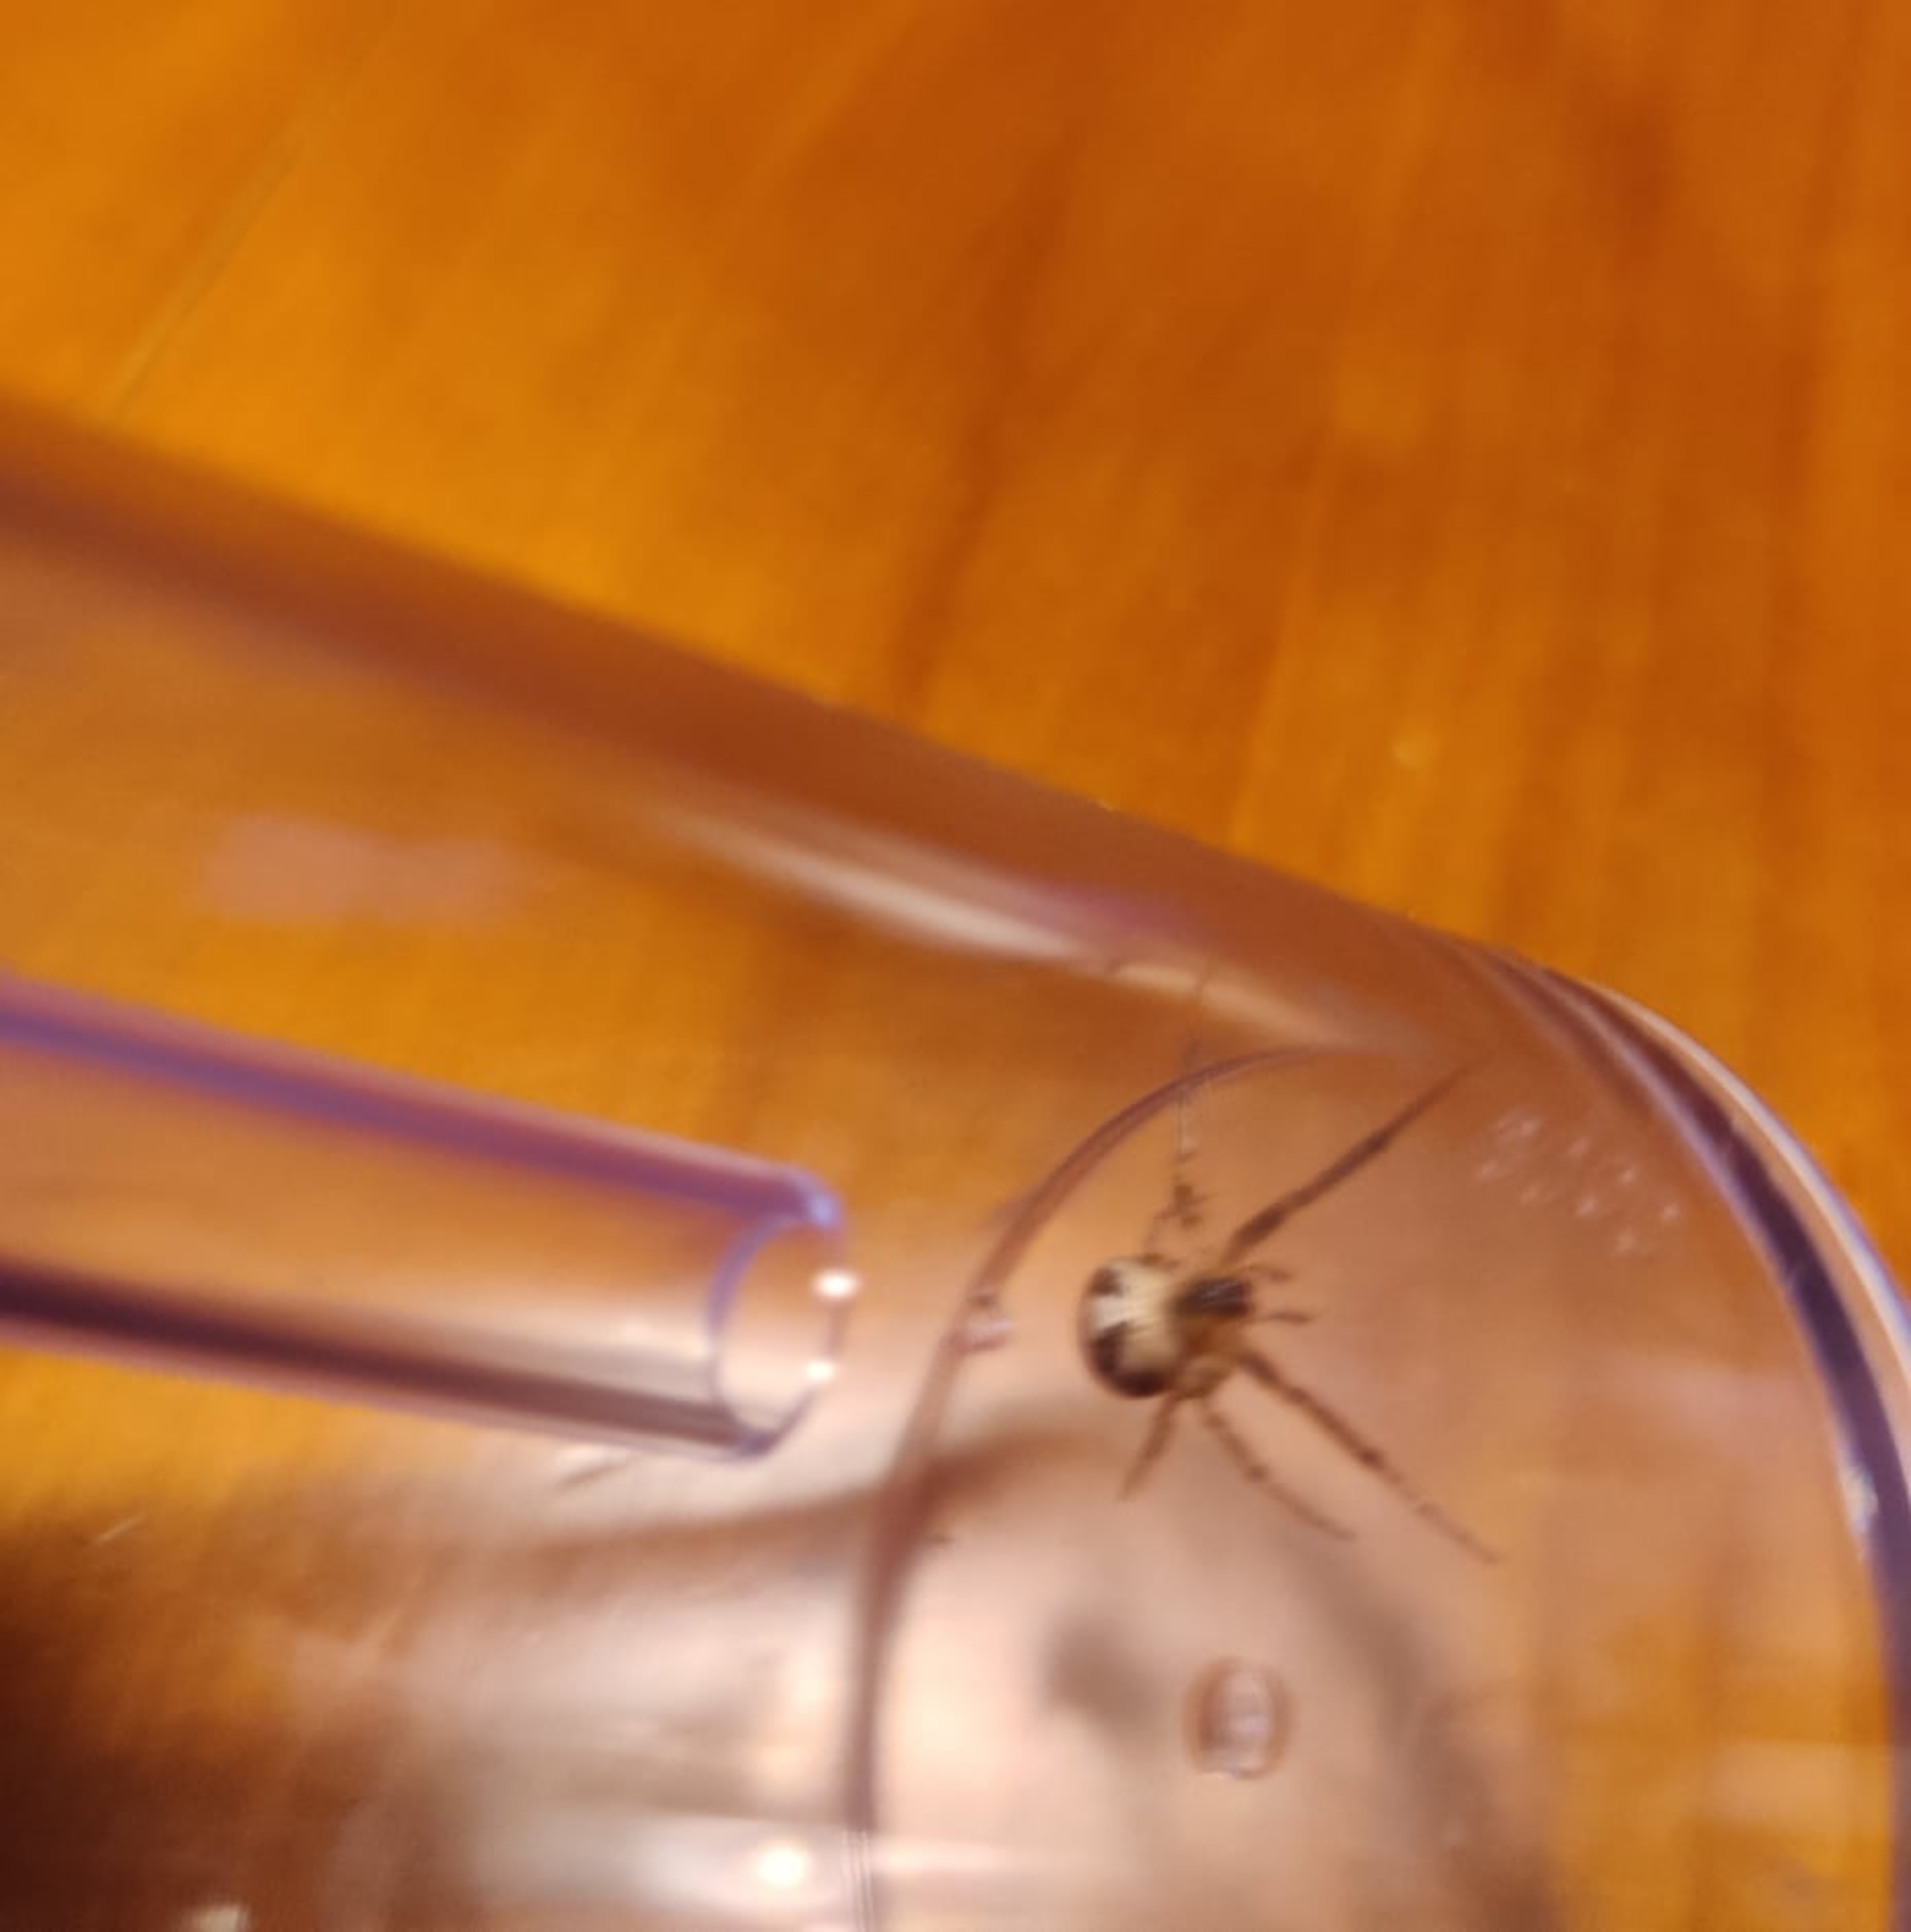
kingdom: Animalia
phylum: Arthropoda
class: Arachnida
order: Araneae
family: Araneidae
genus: Zygiella
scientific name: Zygiella x-notata
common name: Grå sektoredderkop
